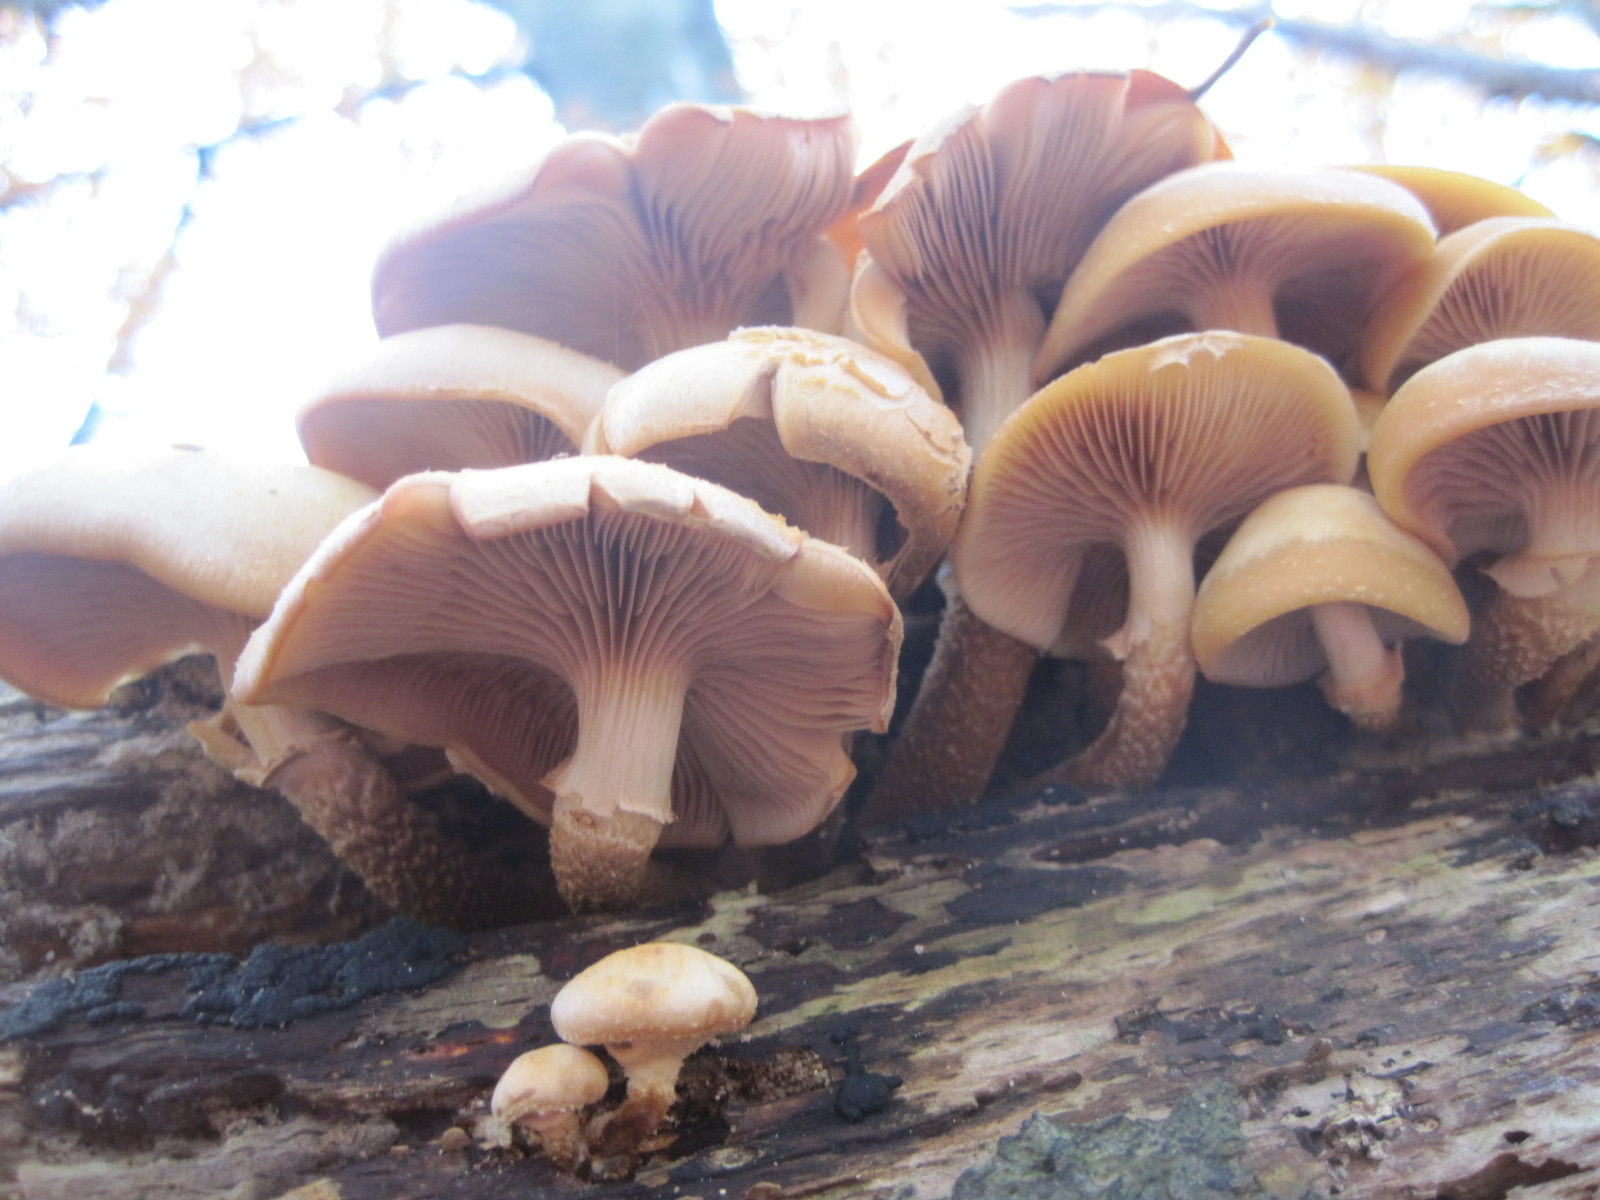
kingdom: Fungi
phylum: Basidiomycota
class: Agaricomycetes
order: Agaricales
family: Strophariaceae
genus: Kuehneromyces
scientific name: Kuehneromyces mutabilis
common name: foranderlig skælhat
